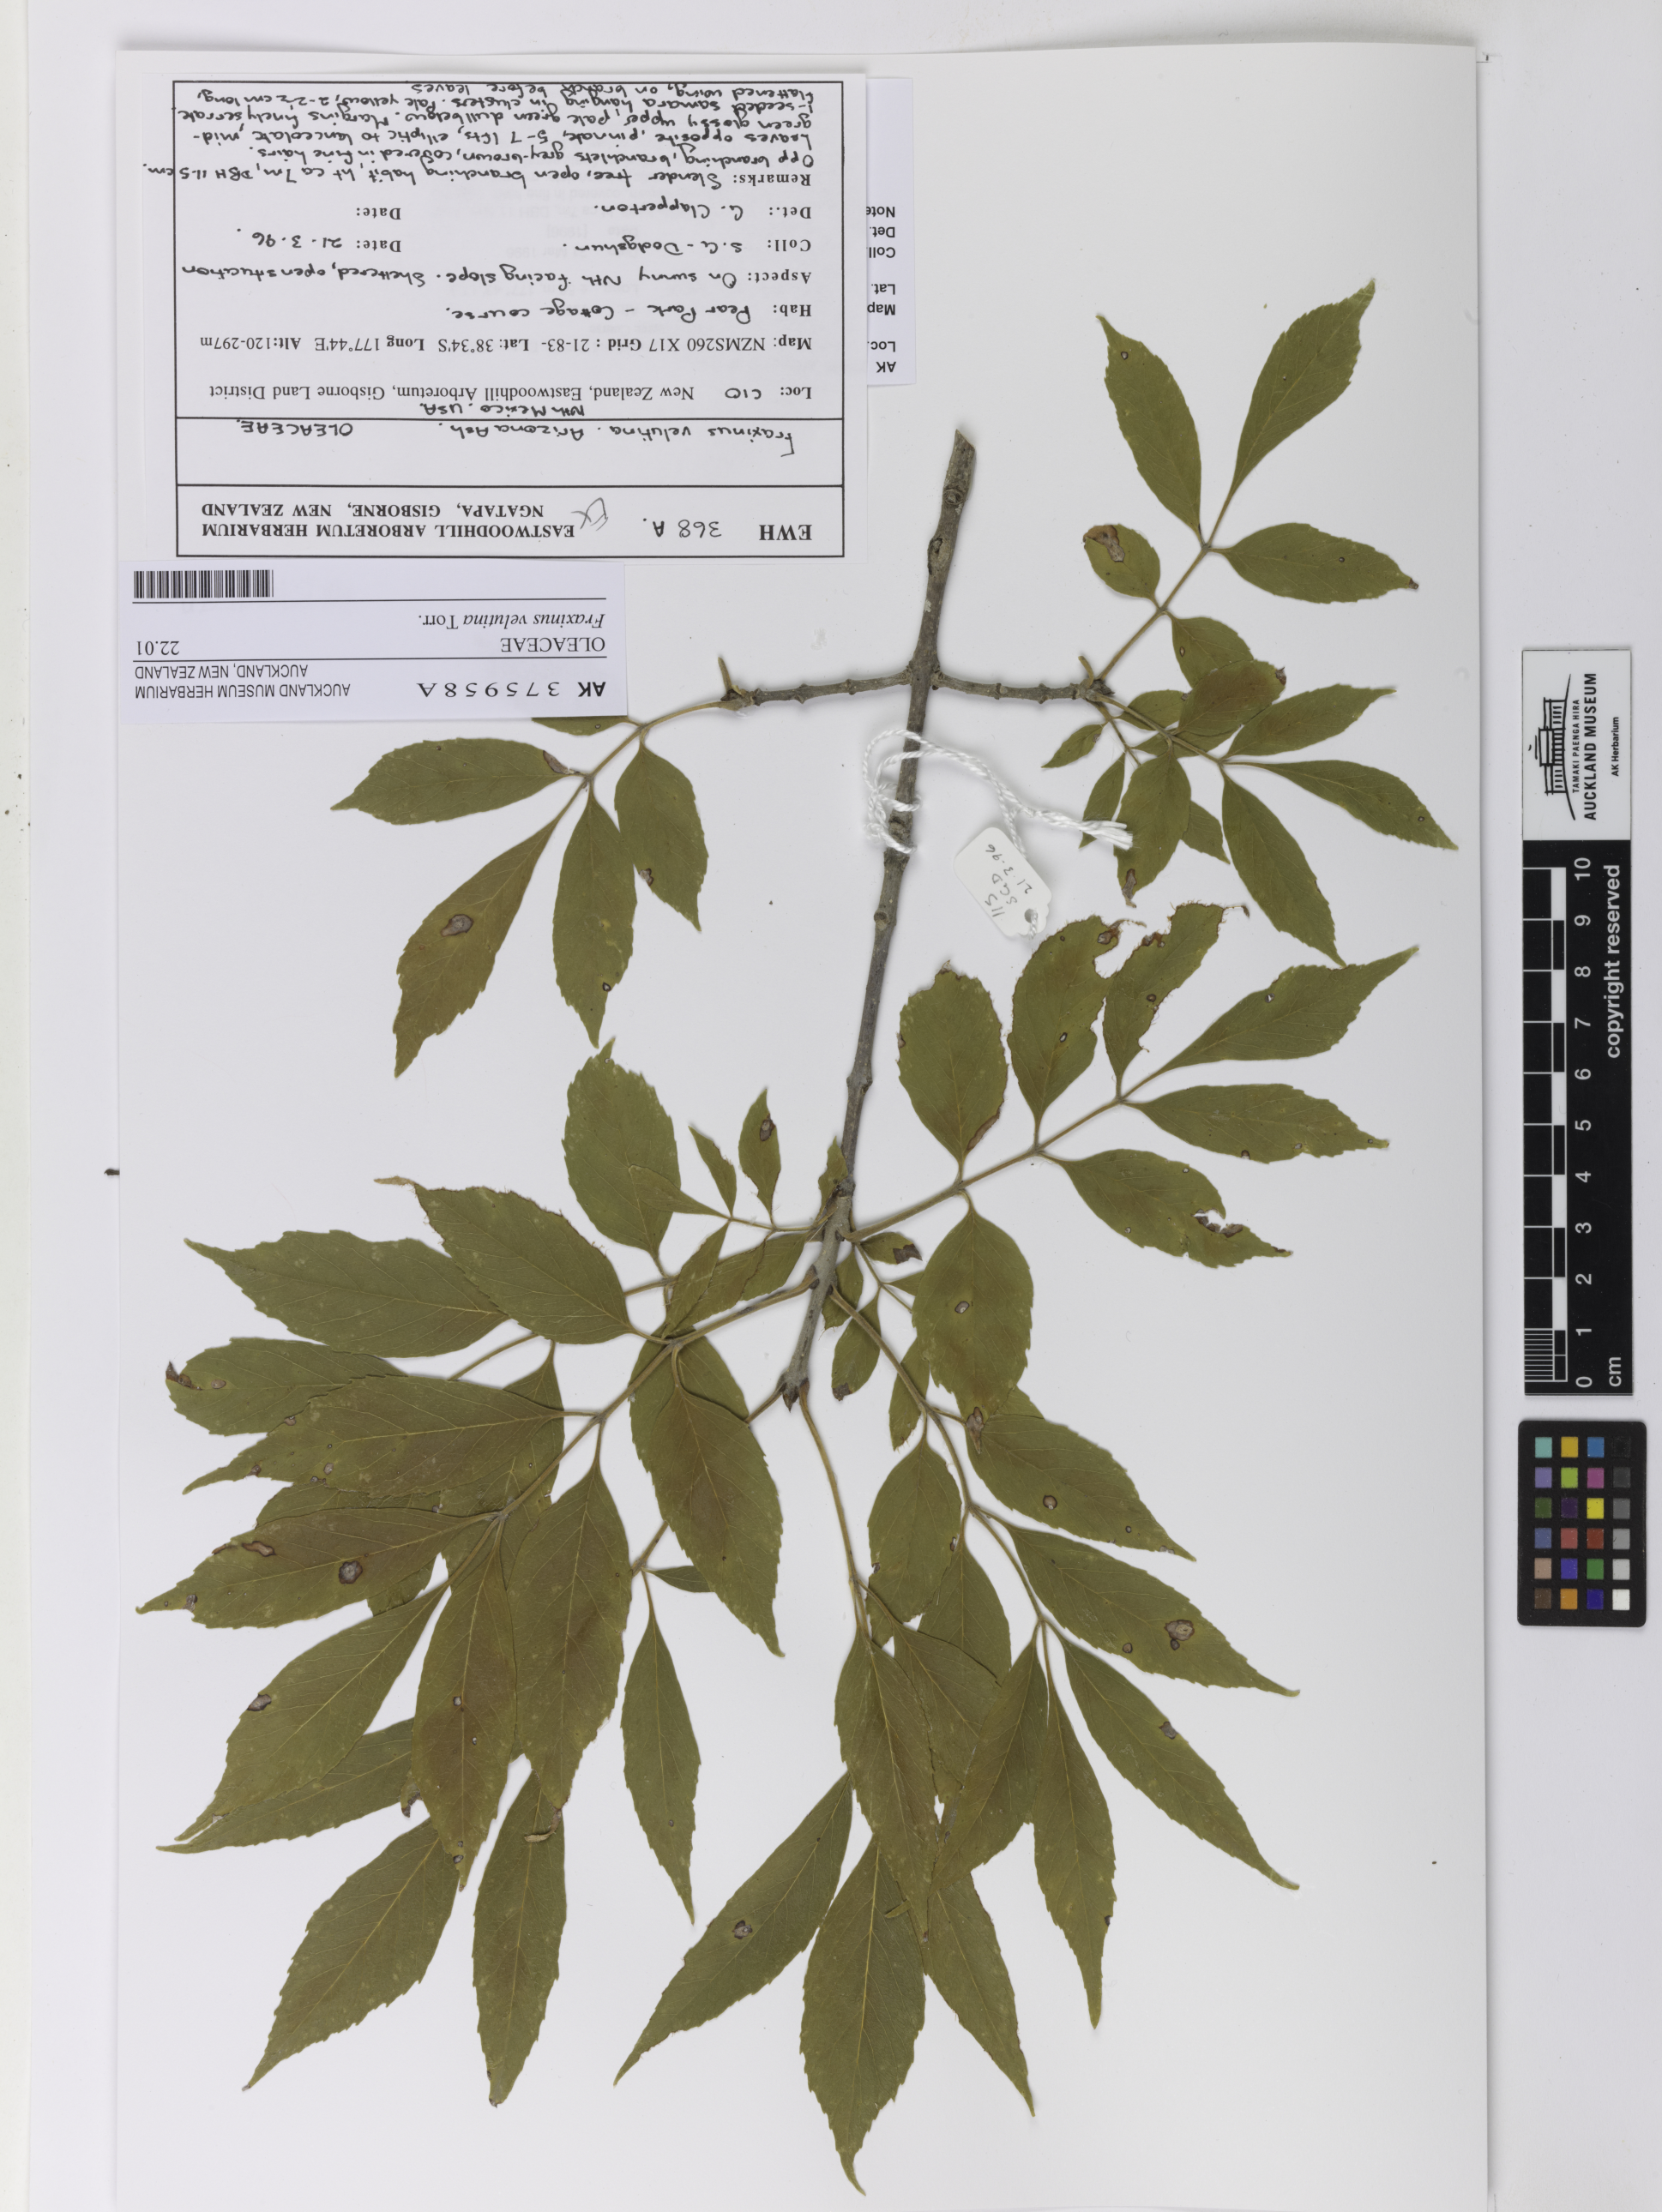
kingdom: Plantae
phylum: Tracheophyta
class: Magnoliopsida
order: Lamiales
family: Oleaceae
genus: Fraxinus
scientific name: Fraxinus velutina
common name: Arizon ash
